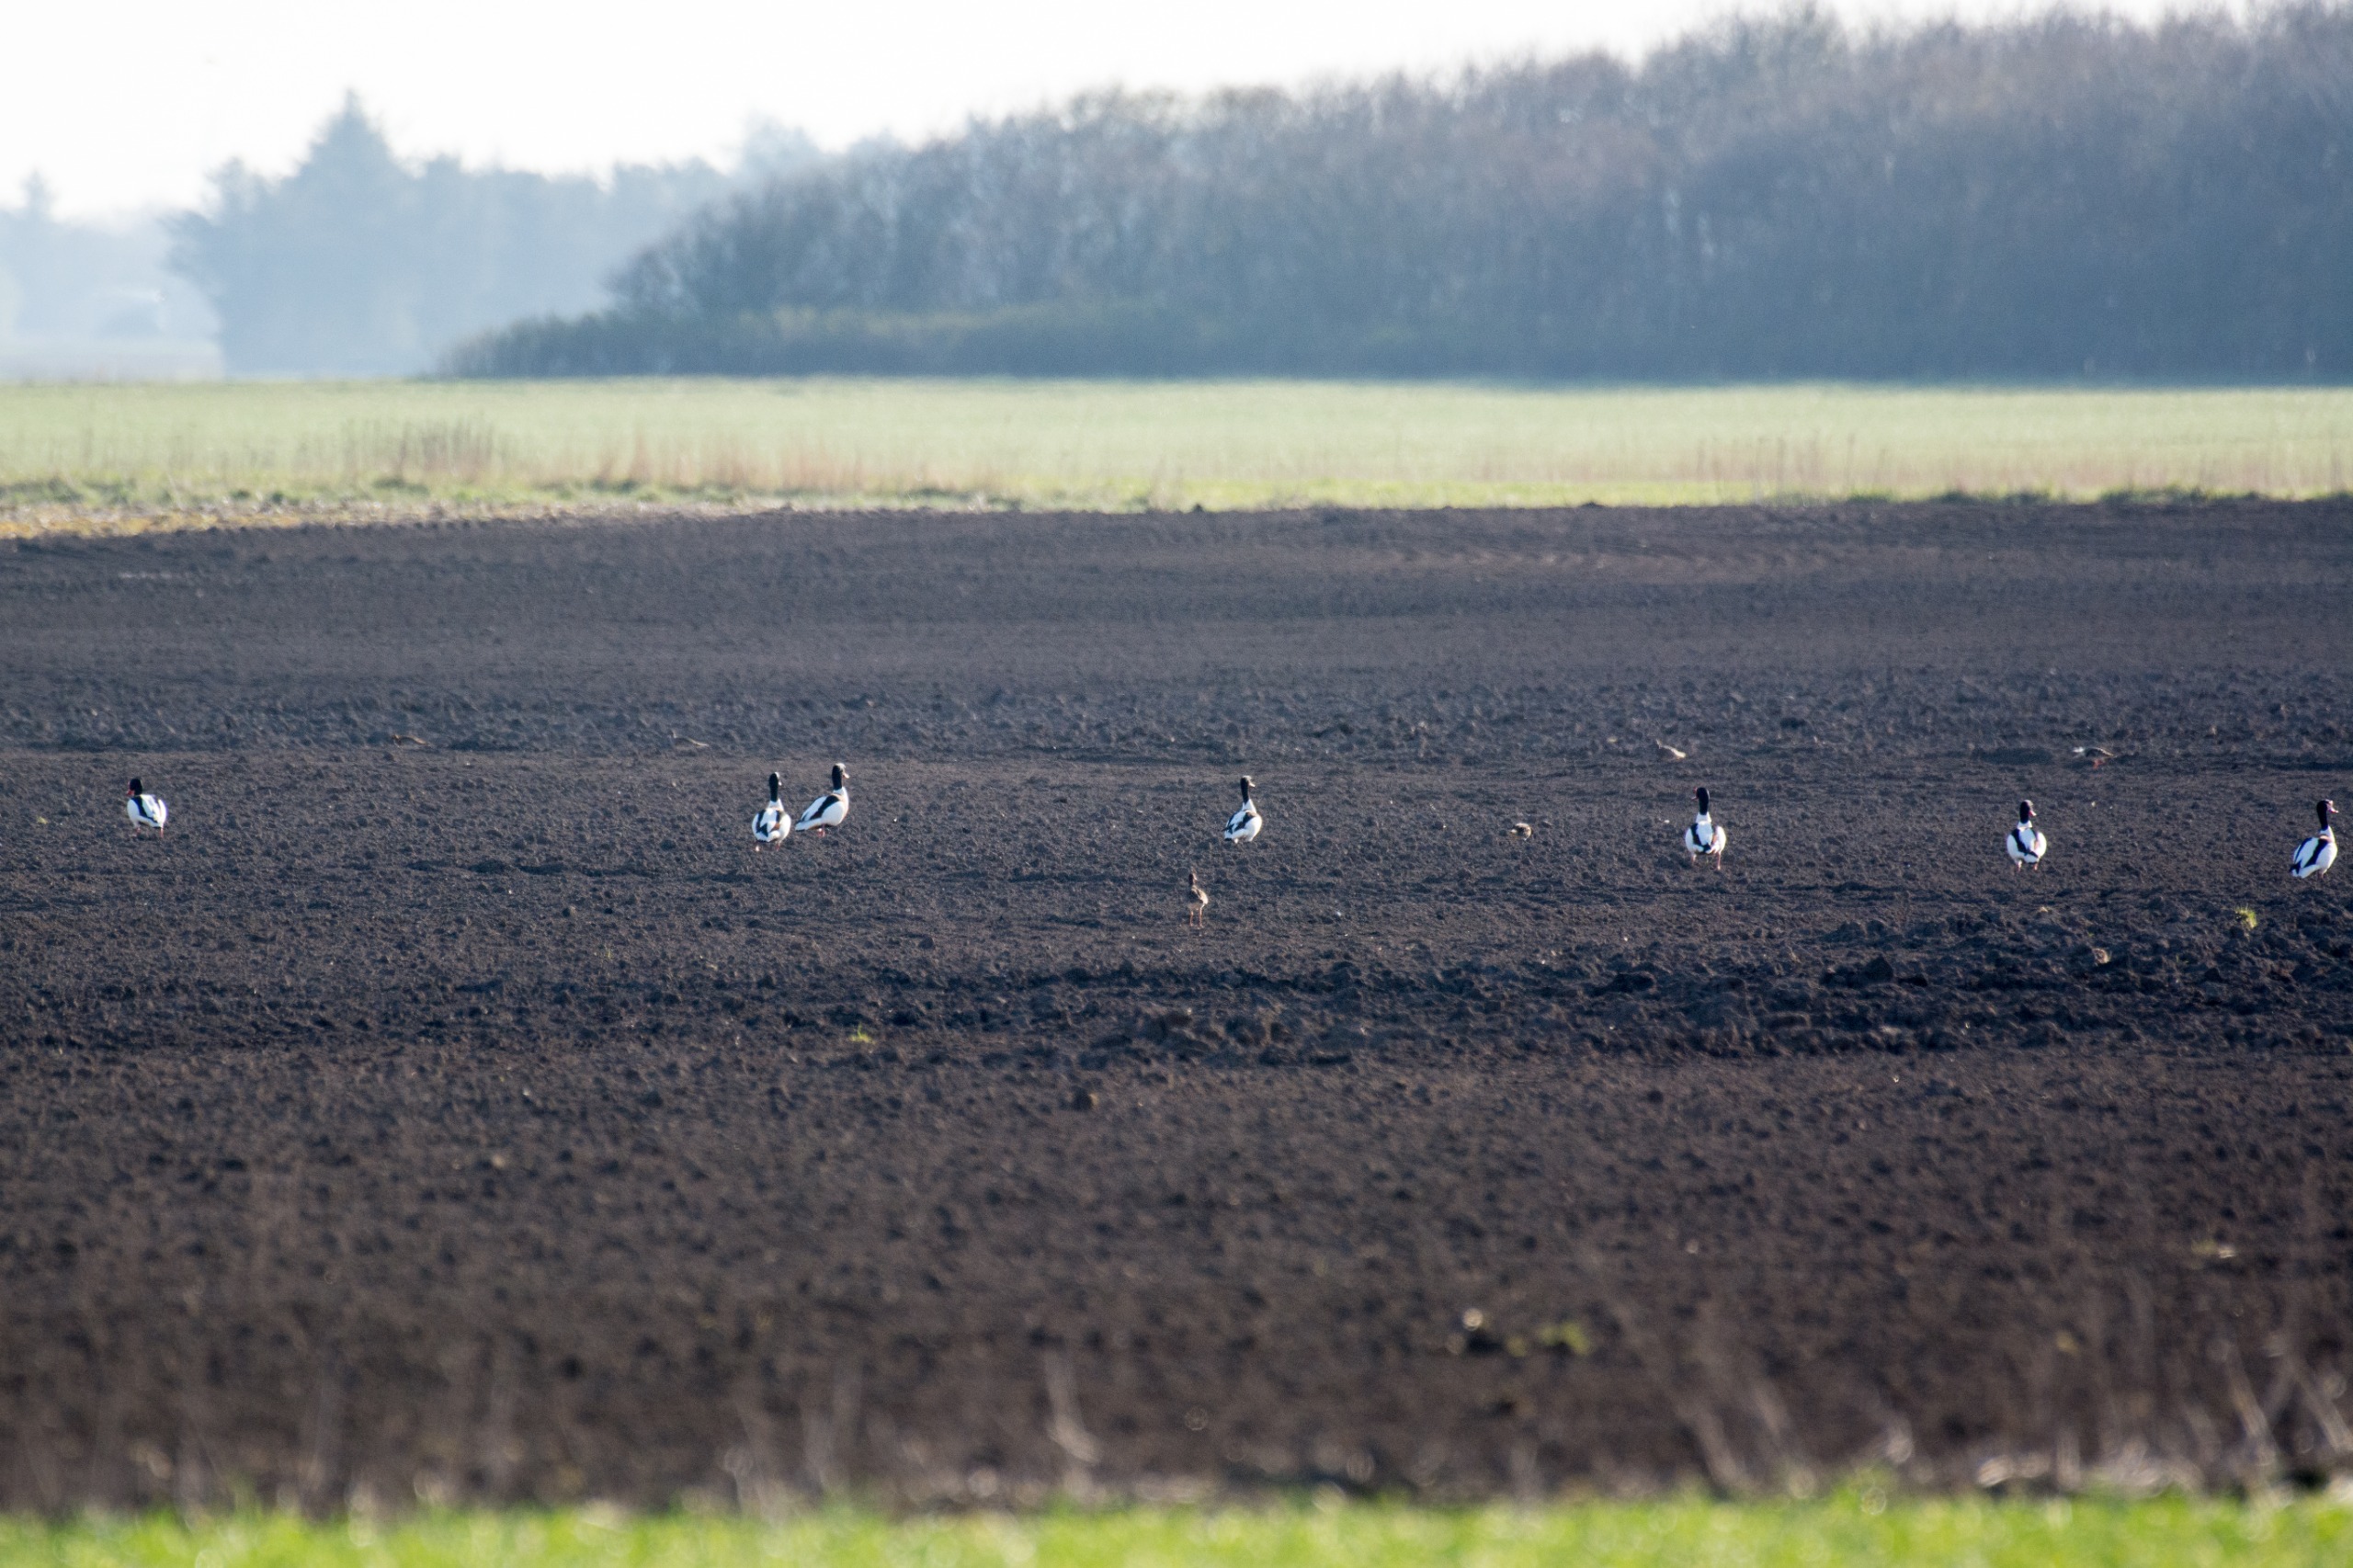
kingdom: Animalia
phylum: Chordata
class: Aves
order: Anseriformes
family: Anatidae
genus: Tadorna
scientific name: Tadorna tadorna
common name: Gravand
